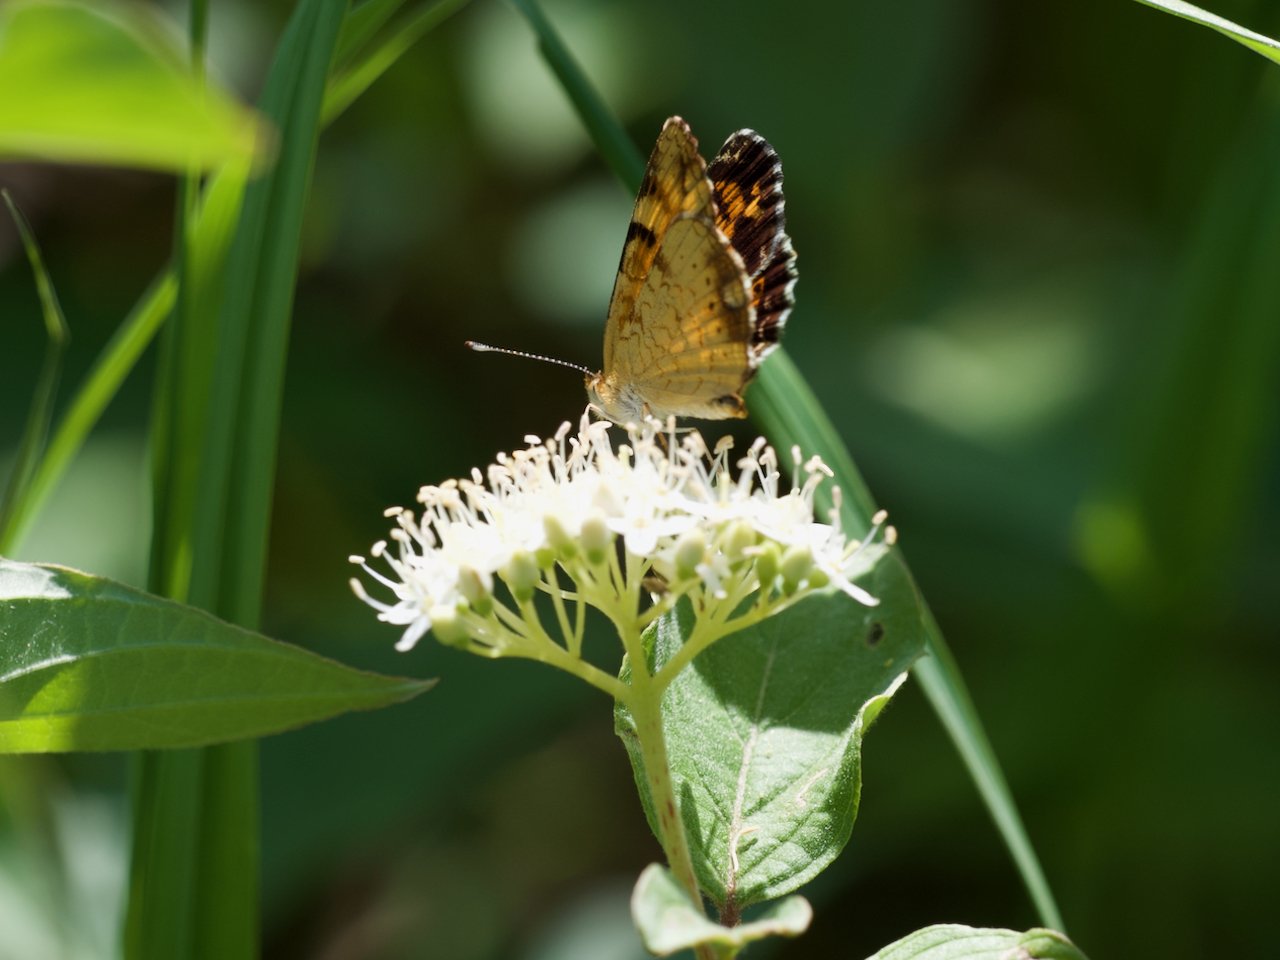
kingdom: Animalia
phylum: Arthropoda
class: Insecta
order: Lepidoptera
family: Nymphalidae
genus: Phyciodes
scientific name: Phyciodes tharos
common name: Northern Crescent
